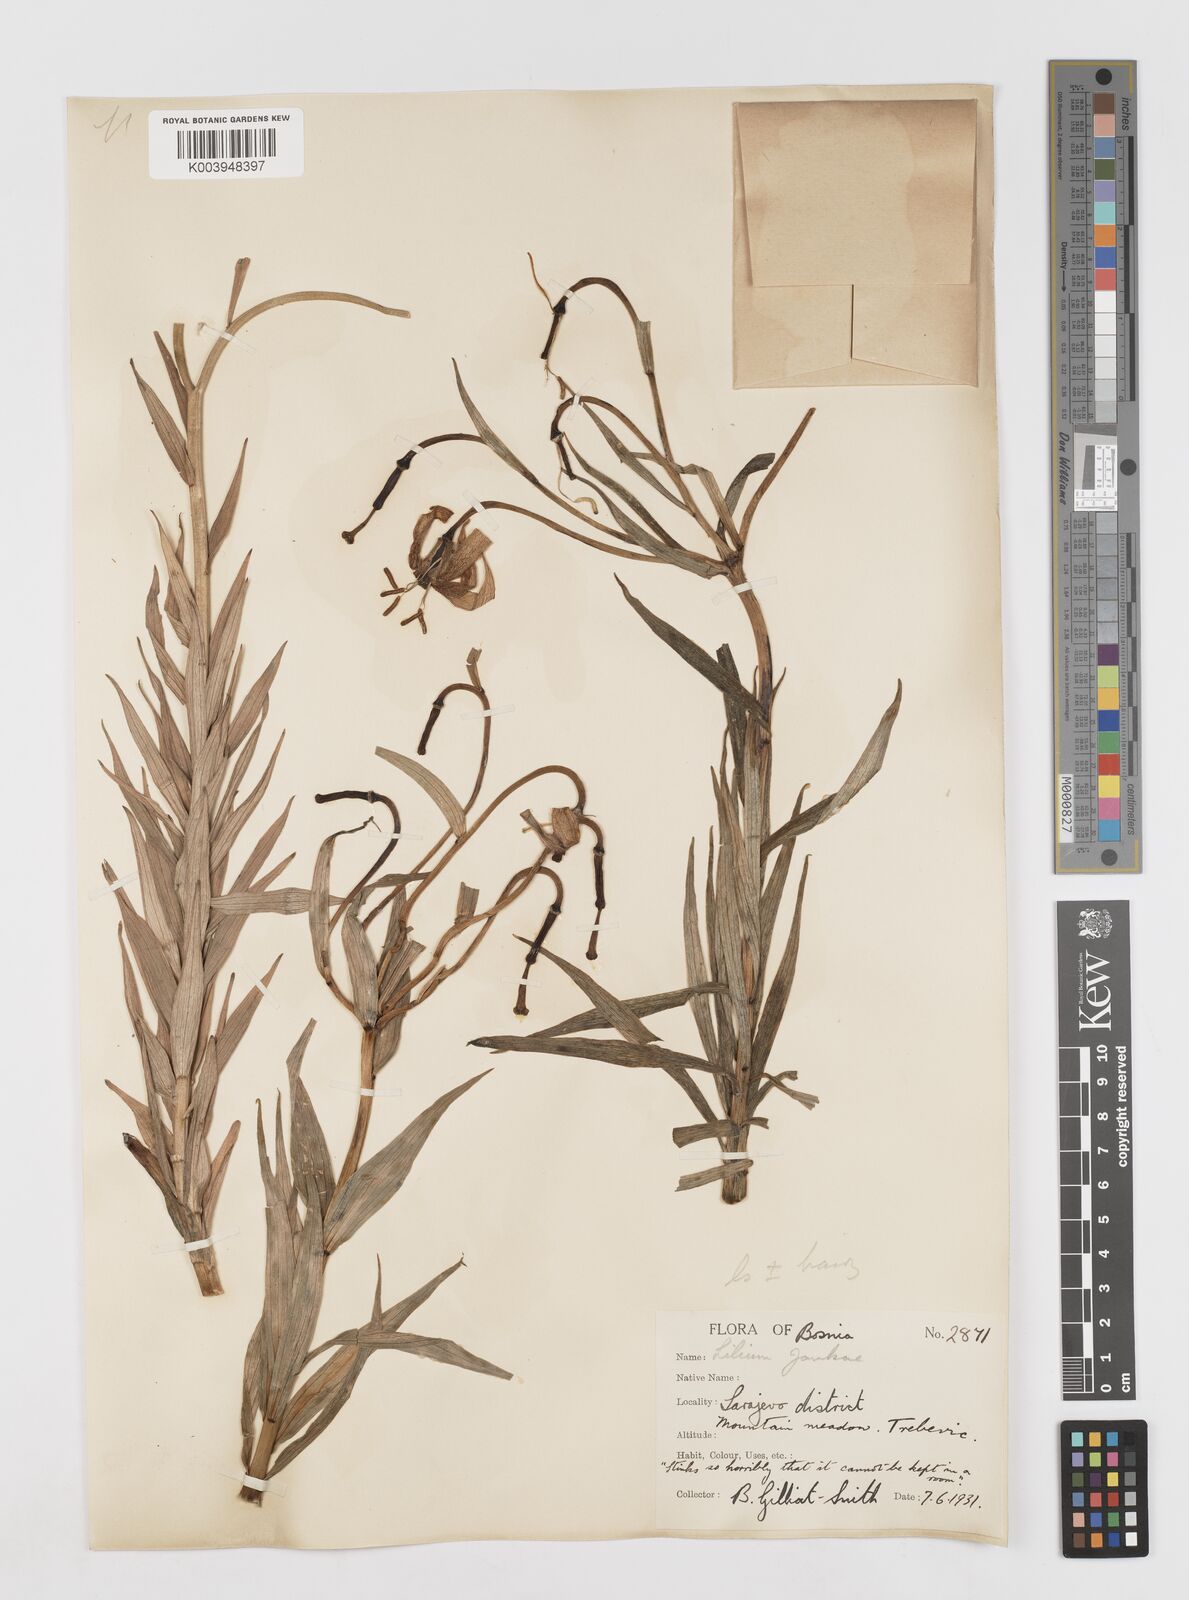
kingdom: Plantae
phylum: Tracheophyta
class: Liliopsida
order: Liliales
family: Liliaceae
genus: Lilium
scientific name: Lilium
